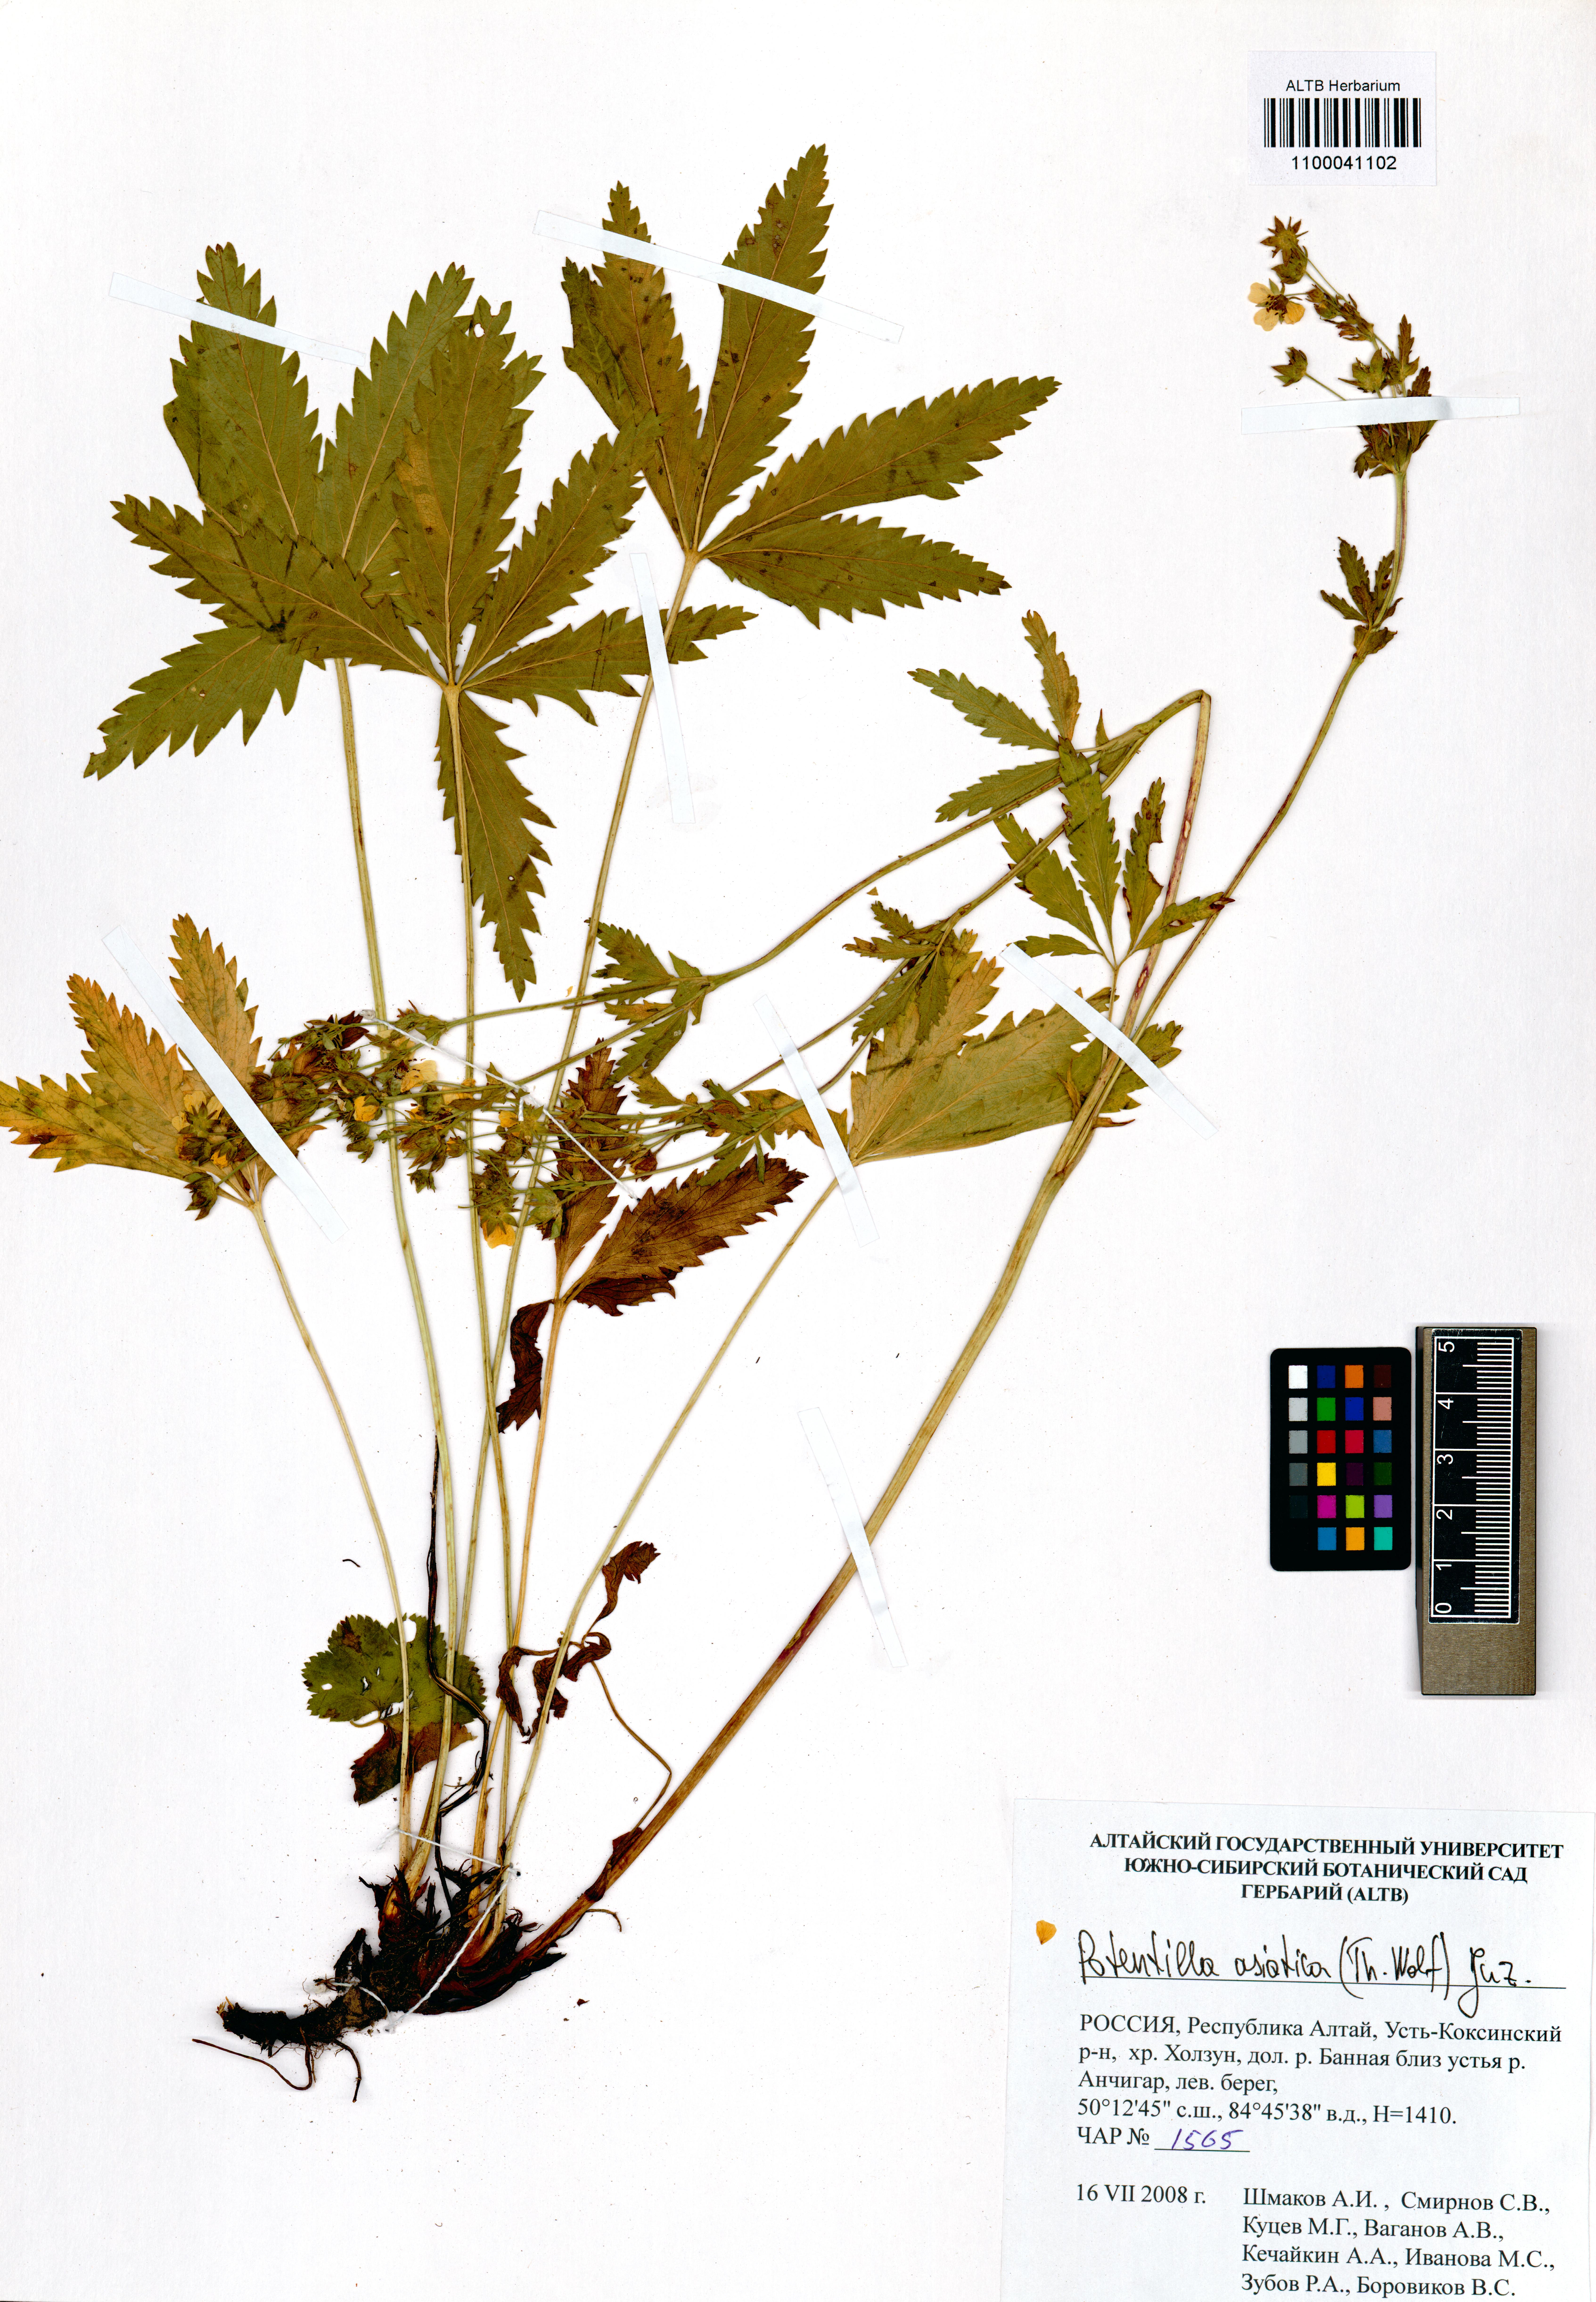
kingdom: Plantae
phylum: Tracheophyta
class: Magnoliopsida
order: Rosales
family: Rosaceae
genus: Potentilla
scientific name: Potentilla asiatica
